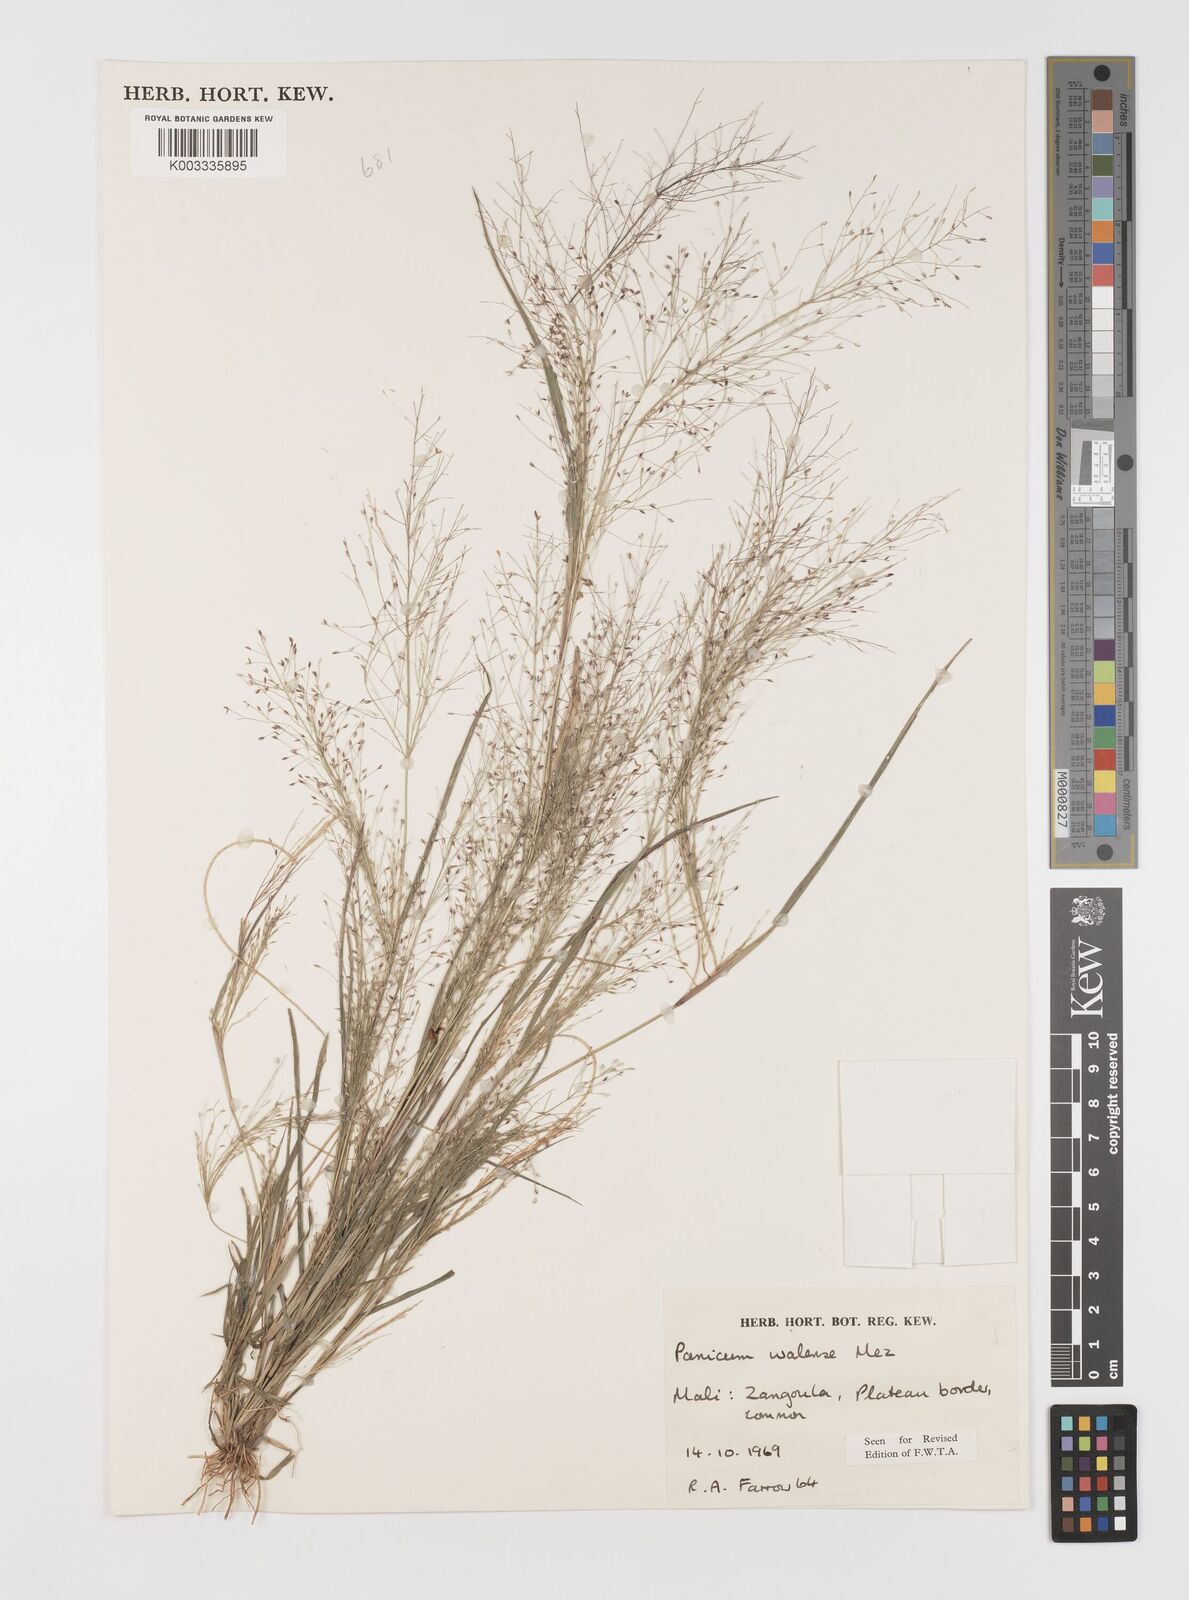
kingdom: Plantae
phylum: Tracheophyta
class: Liliopsida
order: Poales
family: Poaceae
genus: Panicum
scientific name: Panicum humile
